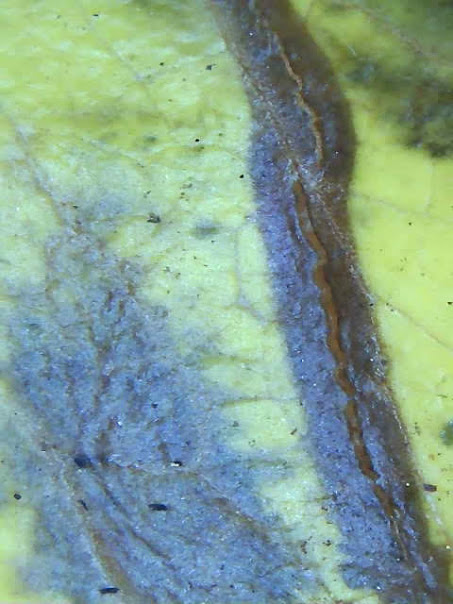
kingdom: Fungi
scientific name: Fungi
